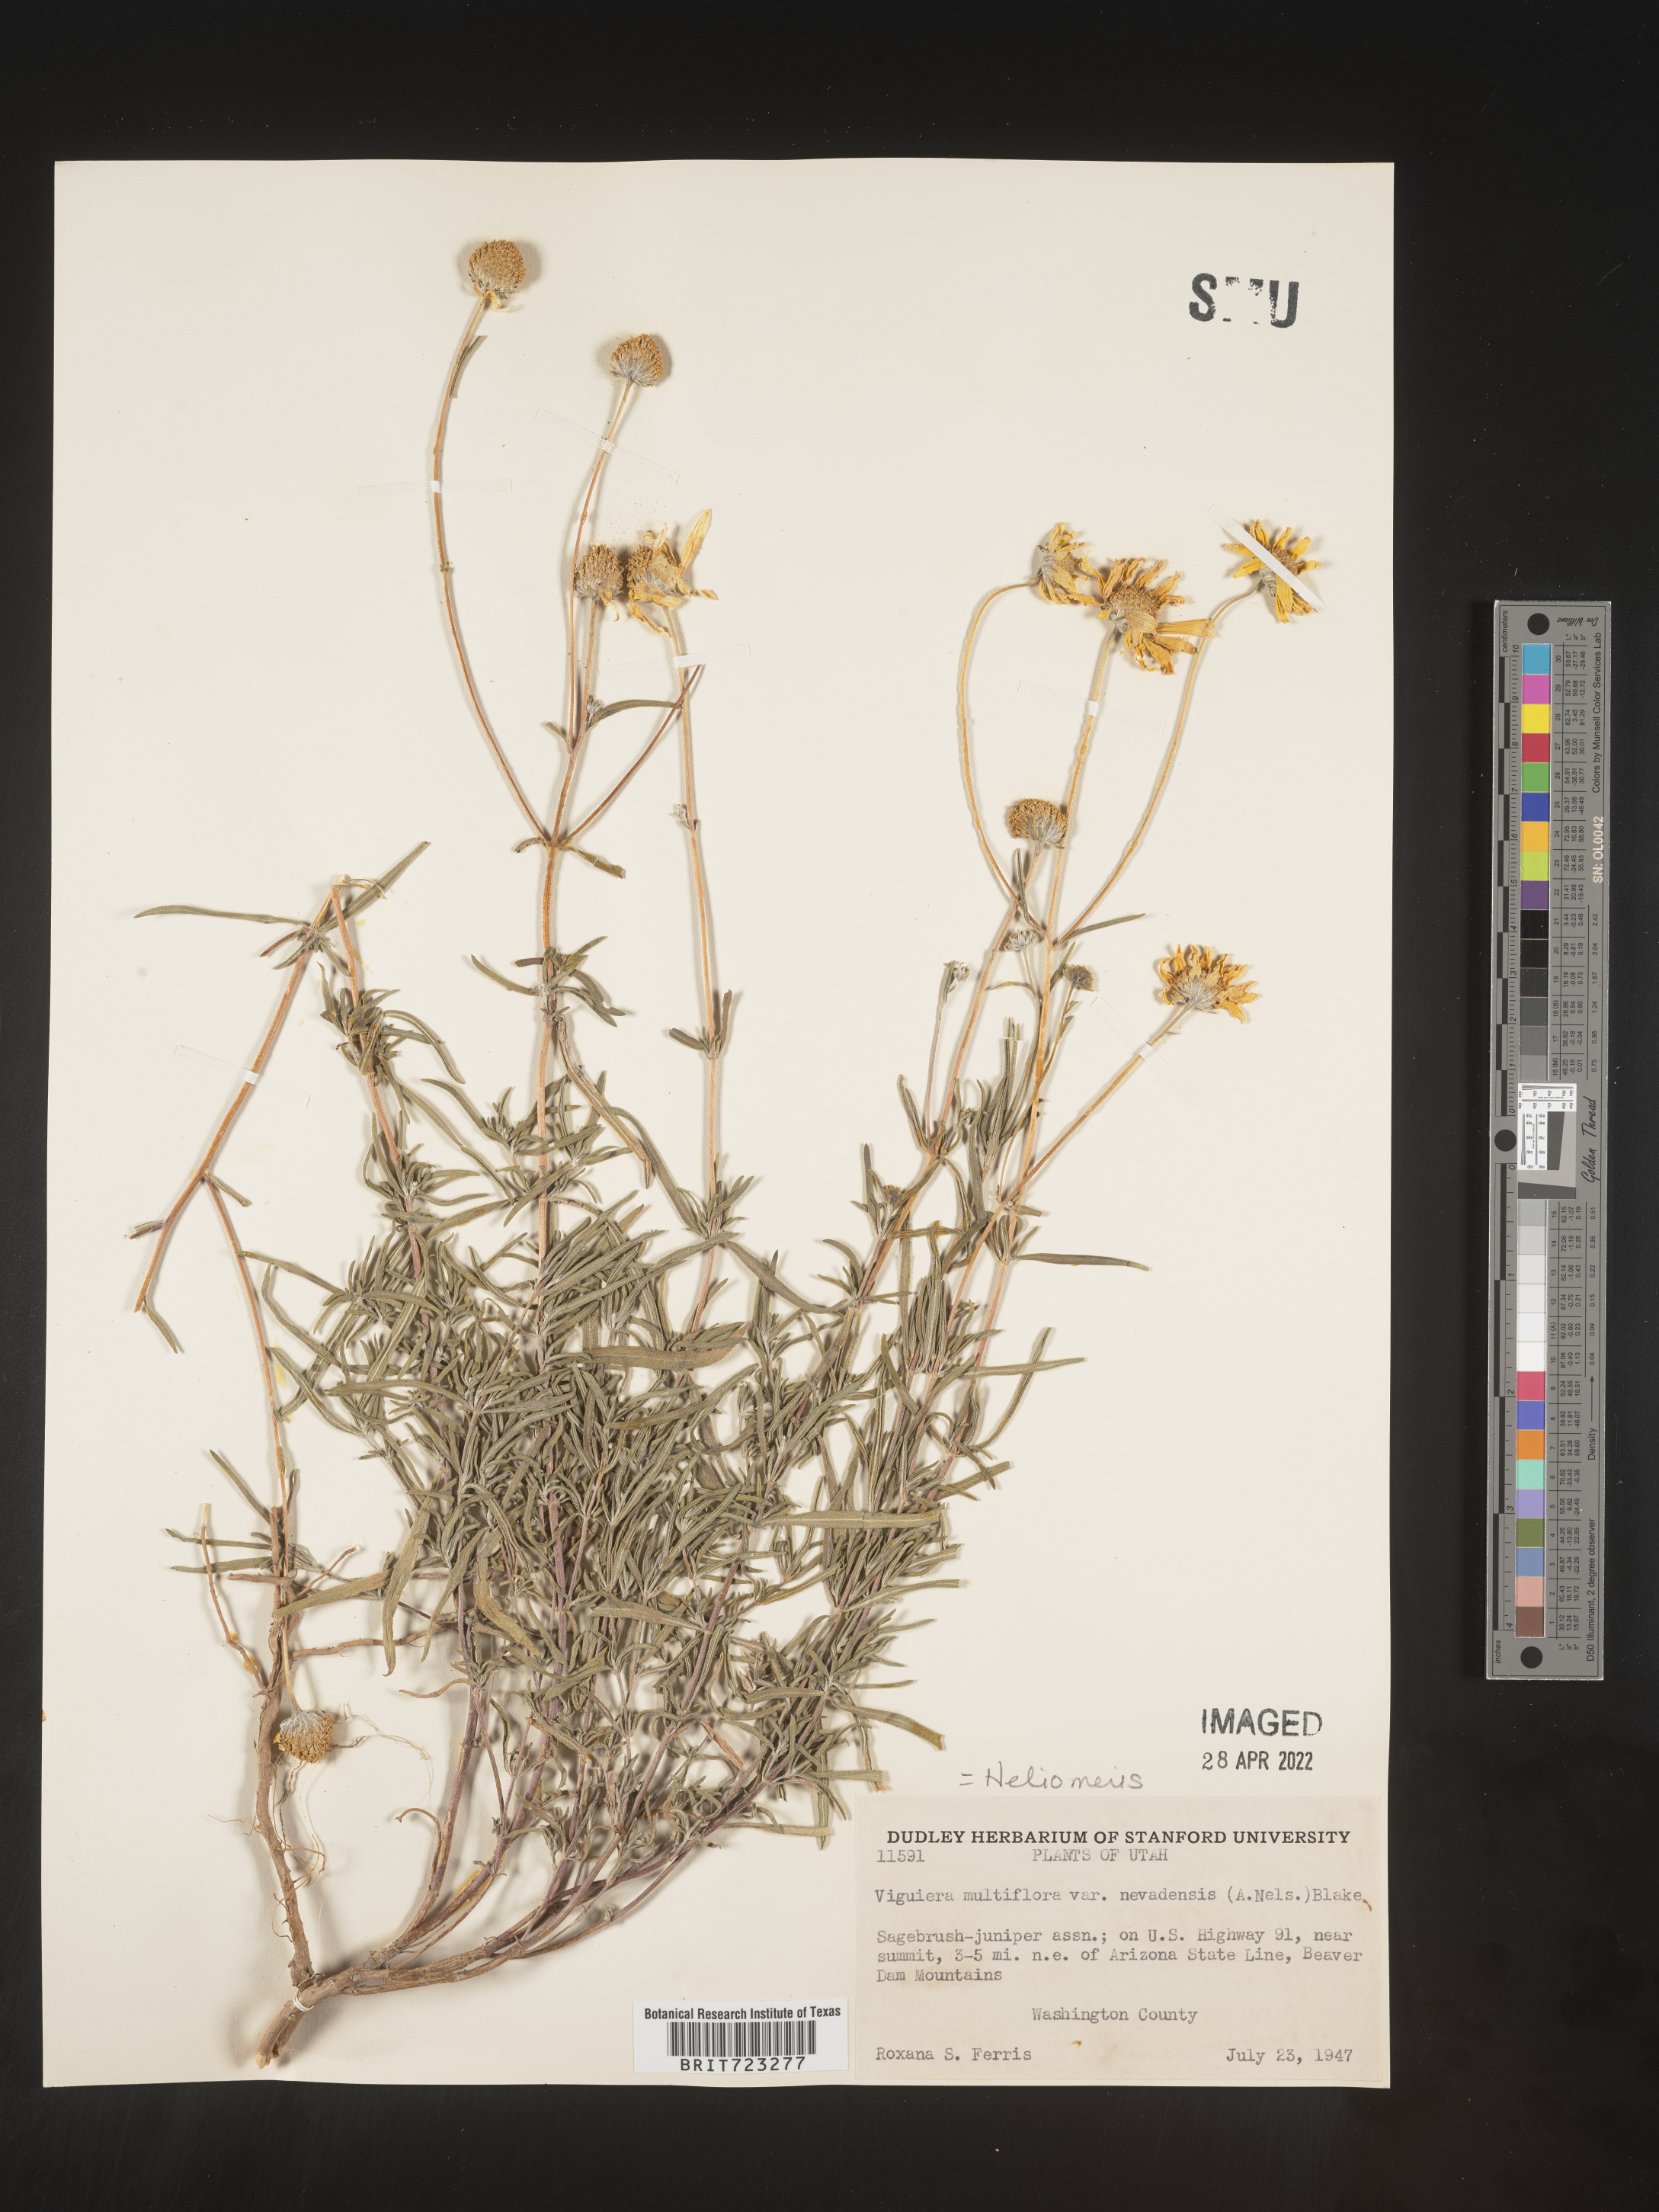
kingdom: Plantae
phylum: Tracheophyta
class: Magnoliopsida
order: Asterales
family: Asteraceae
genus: Heliomeris
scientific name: Heliomeris multiflora
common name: Showy goldeneye
